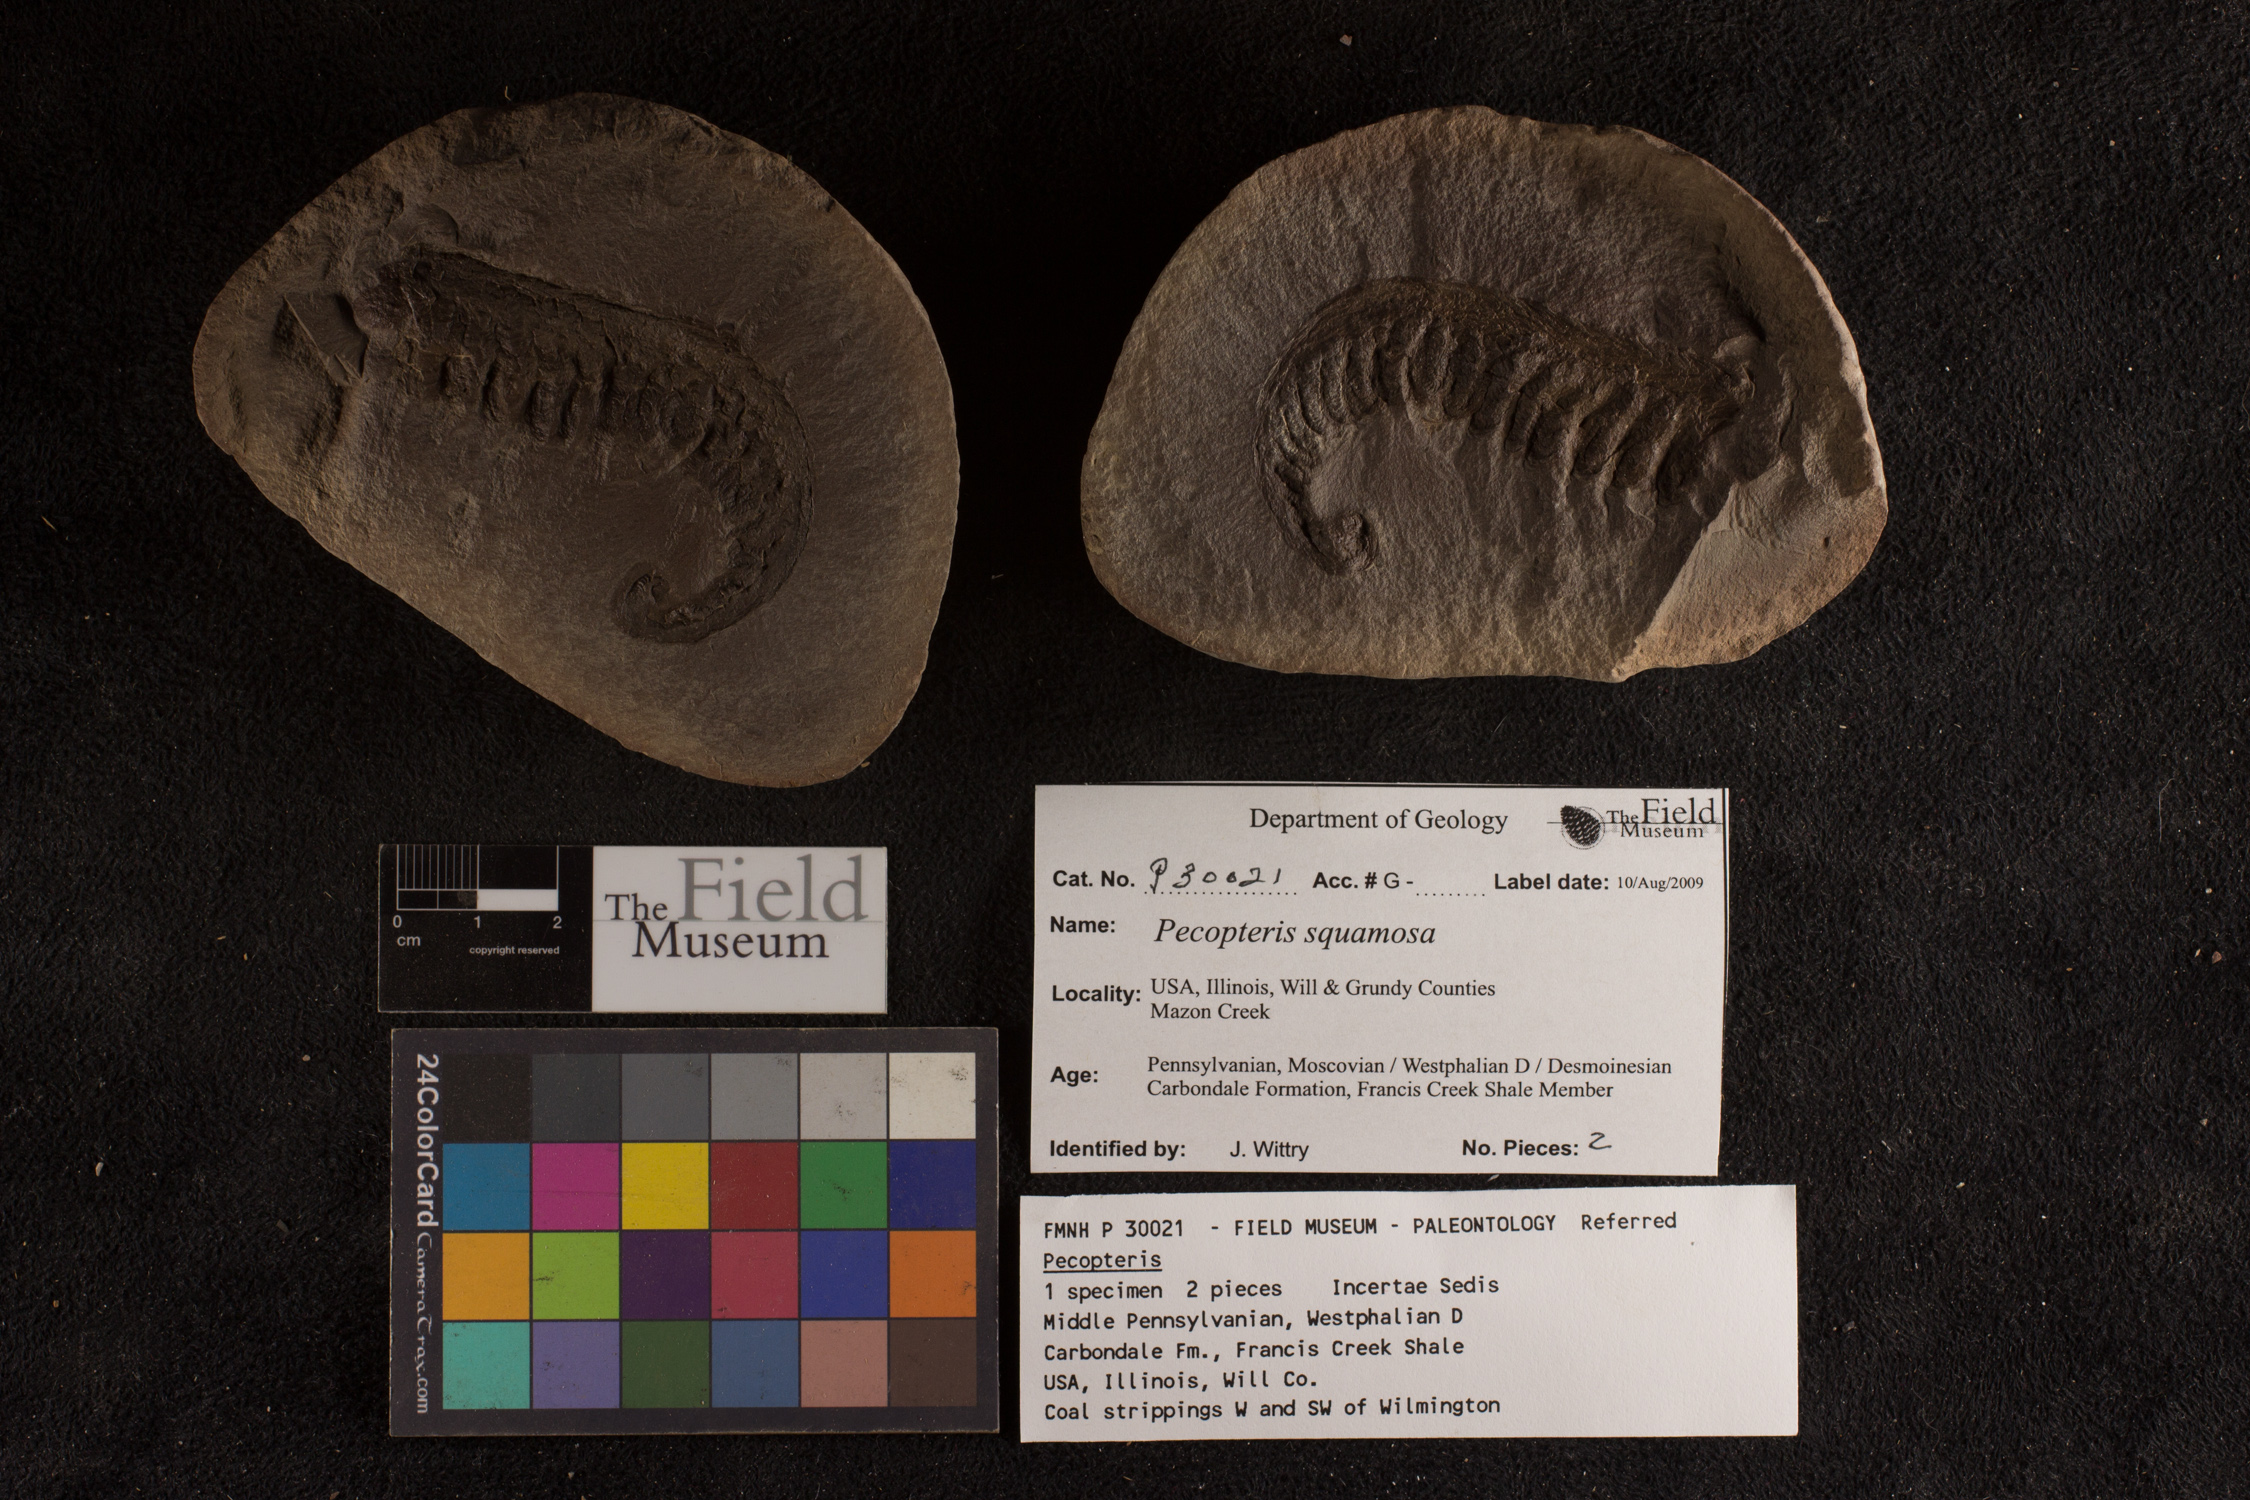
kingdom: Plantae
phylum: Tracheophyta
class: Polypodiopsida
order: Marattiales
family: Asterothecaceae
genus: Pecopteris
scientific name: Pecopteris
